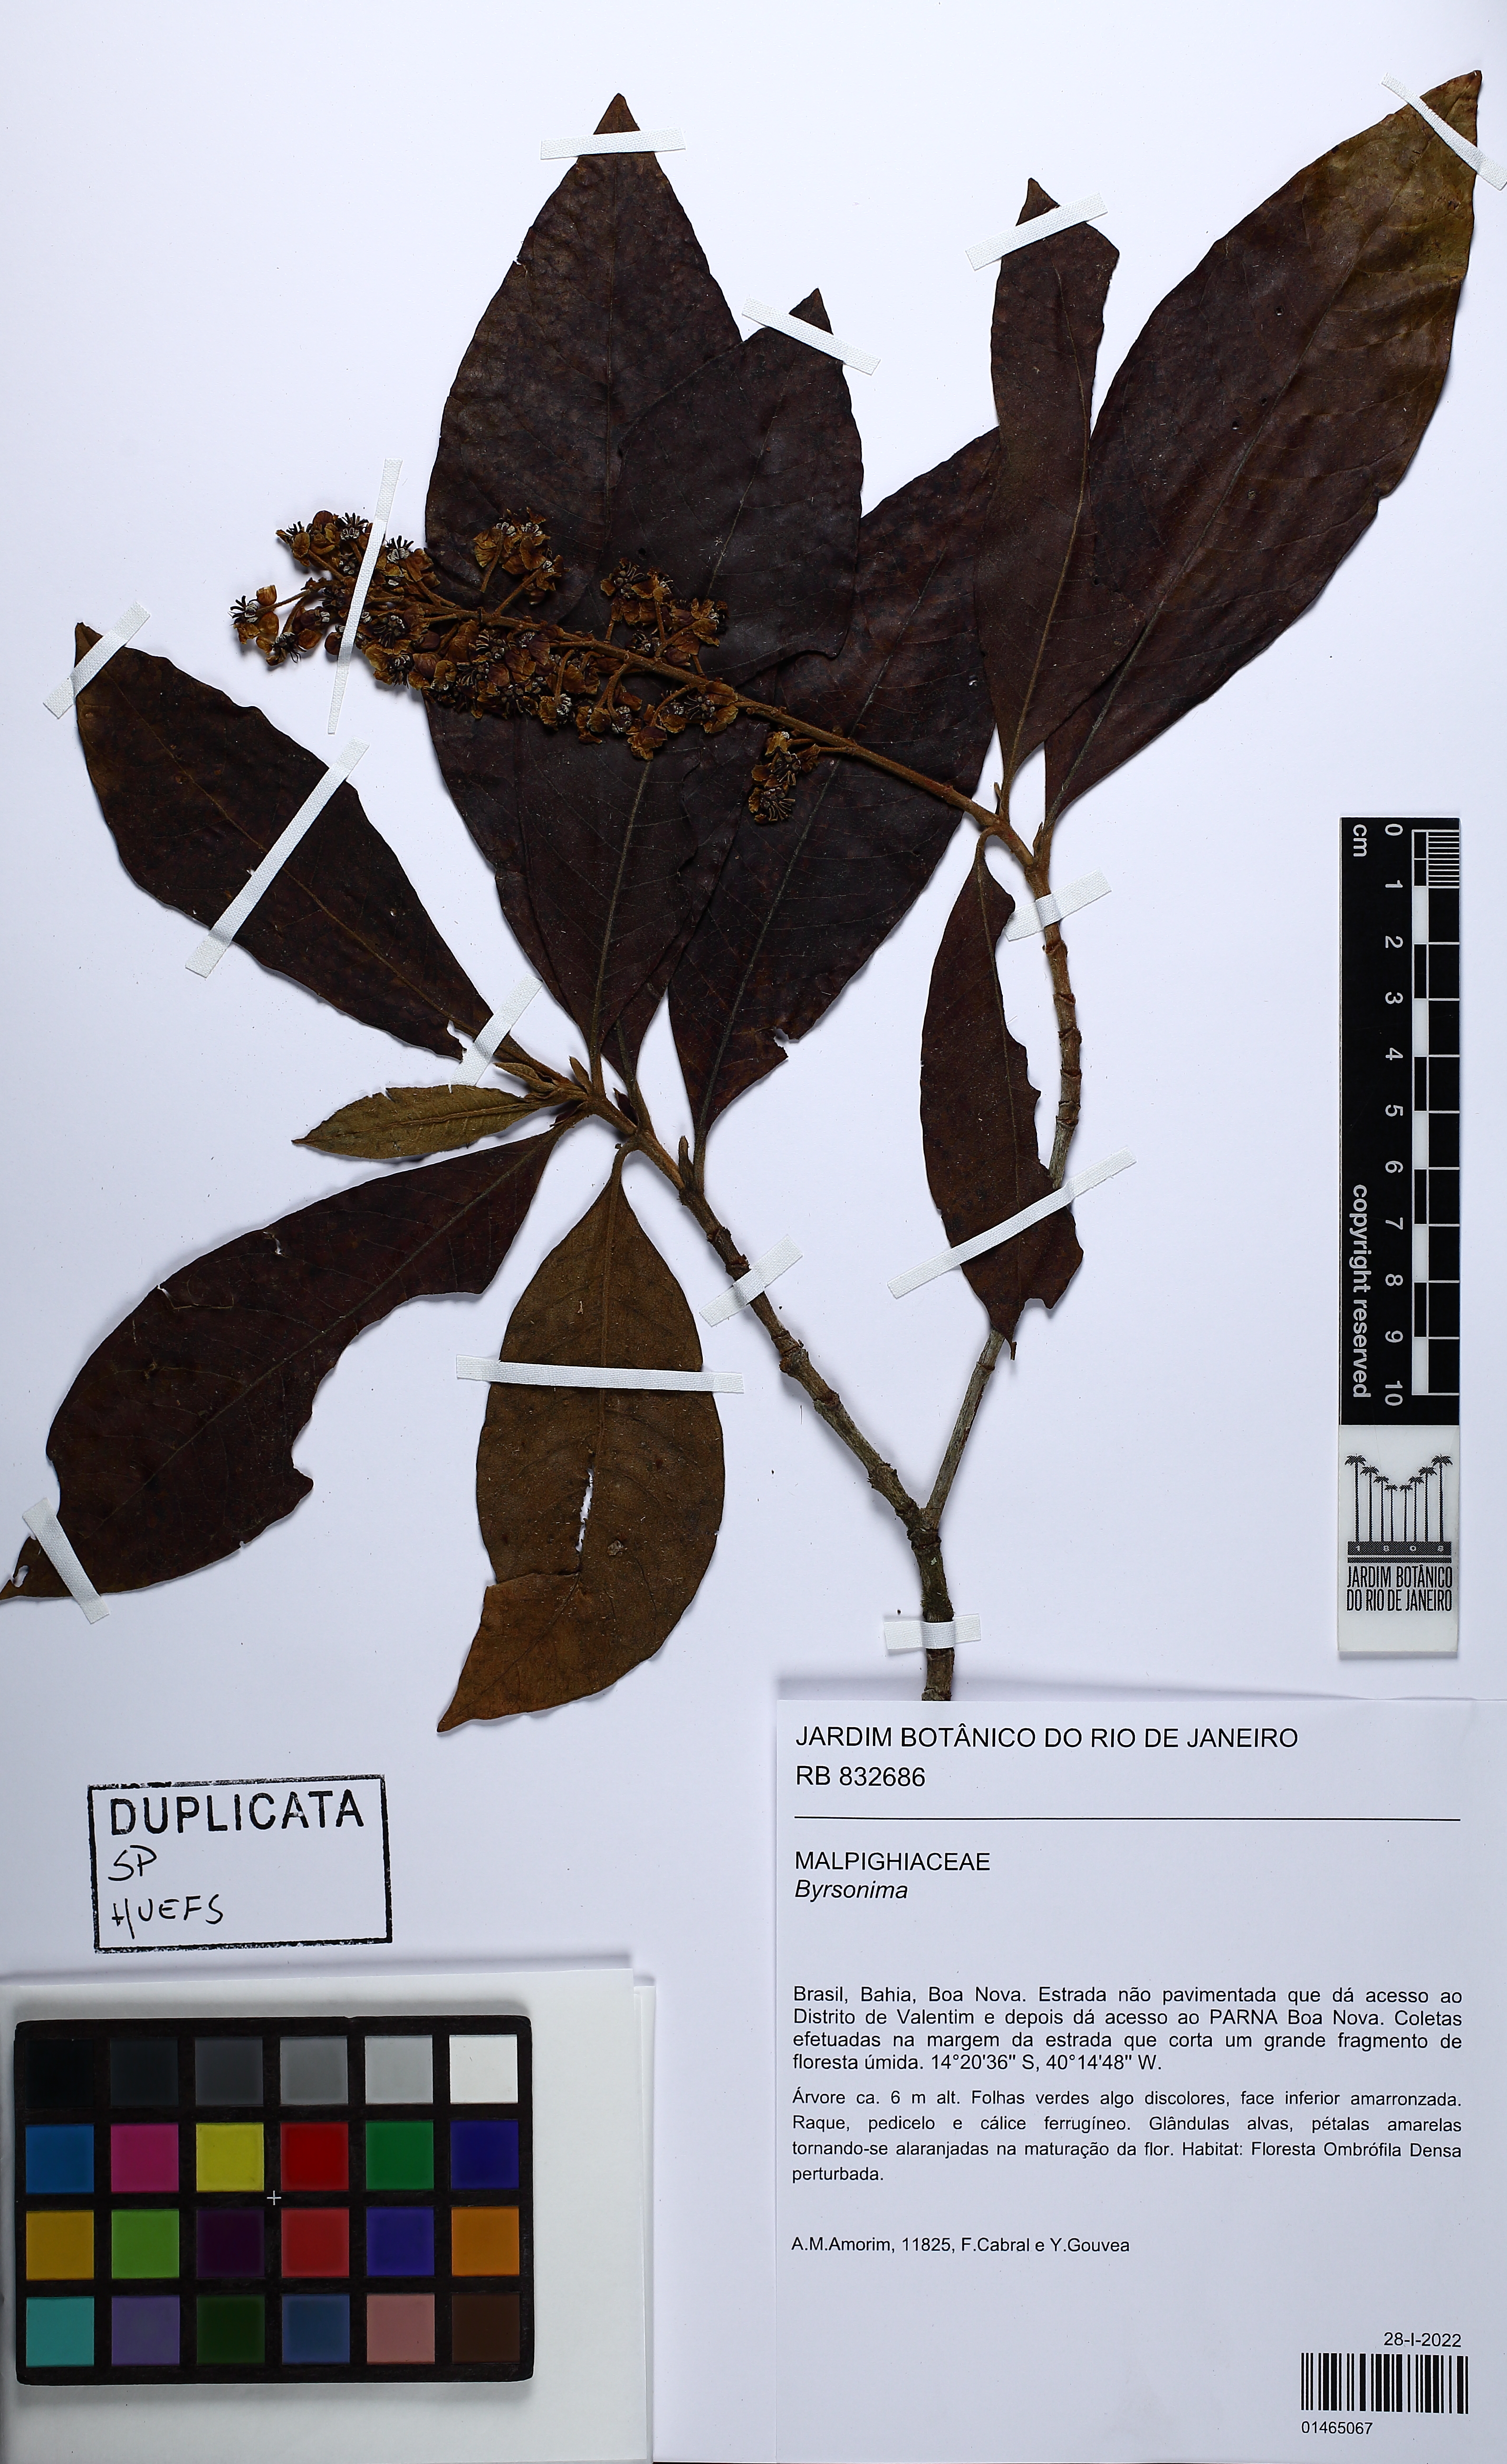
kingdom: Plantae
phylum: Tracheophyta
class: Magnoliopsida
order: Malpighiales
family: Malpighiaceae
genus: Byrsonima
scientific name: Byrsonima
